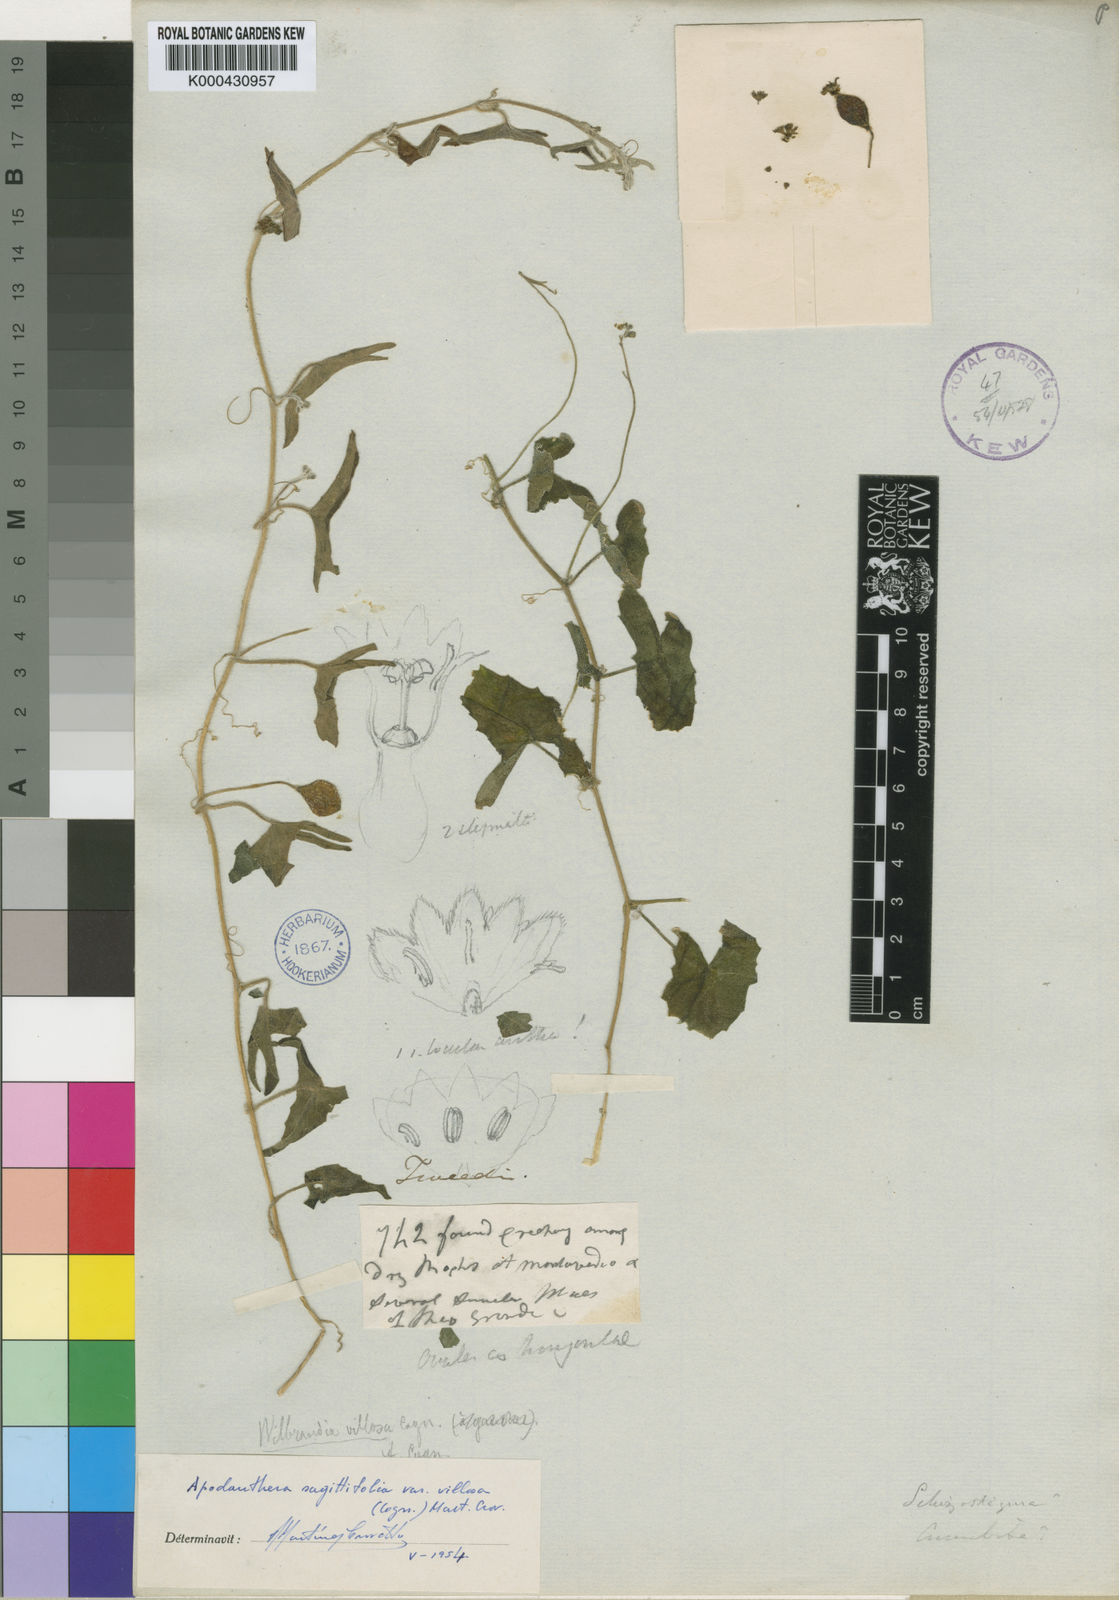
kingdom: Plantae
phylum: Tracheophyta
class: Magnoliopsida
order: Cucurbitales
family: Cucurbitaceae
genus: Apodanthera
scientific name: Apodanthera linearis
